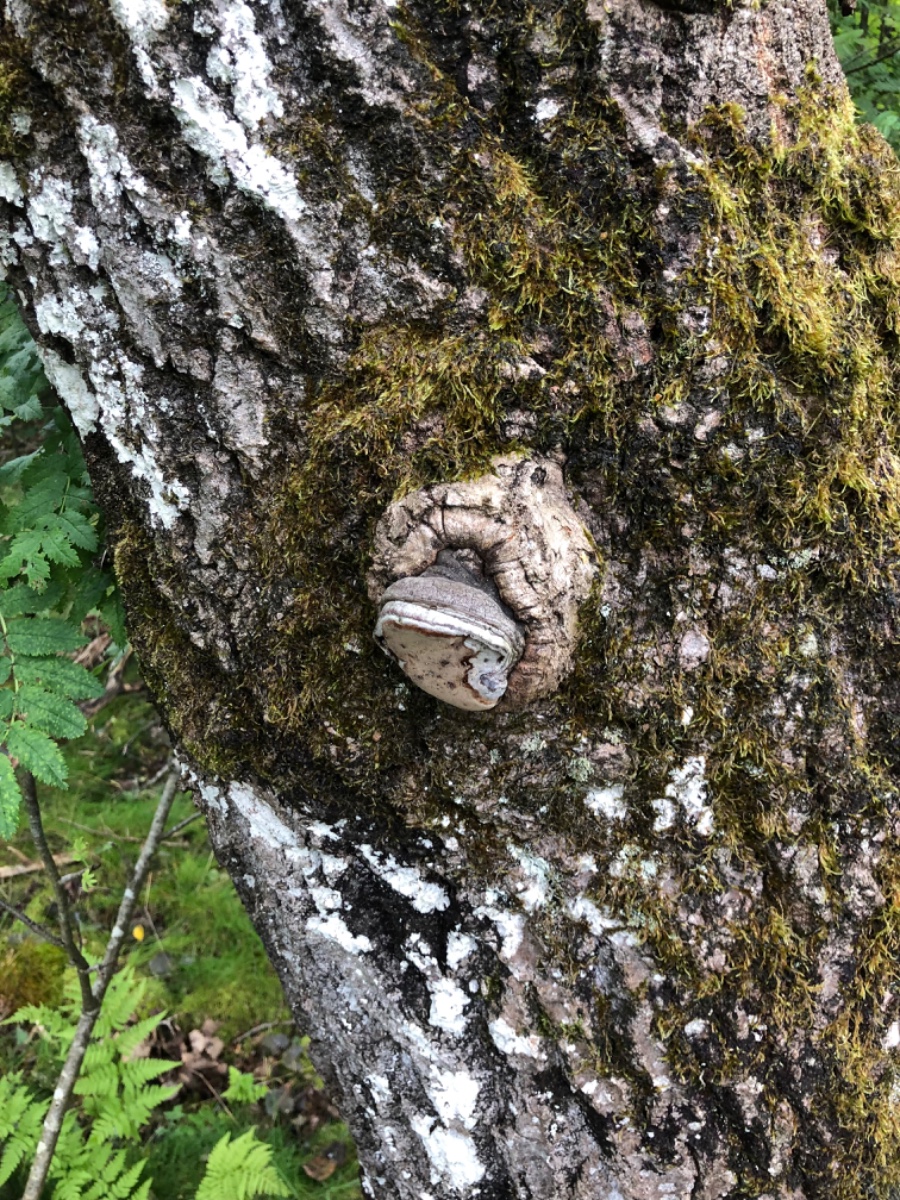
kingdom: Fungi
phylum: Basidiomycota
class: Agaricomycetes
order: Hymenochaetales
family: Hymenochaetaceae
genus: Phellinus
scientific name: Phellinus tremulae
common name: aspe-ildporesvamp
